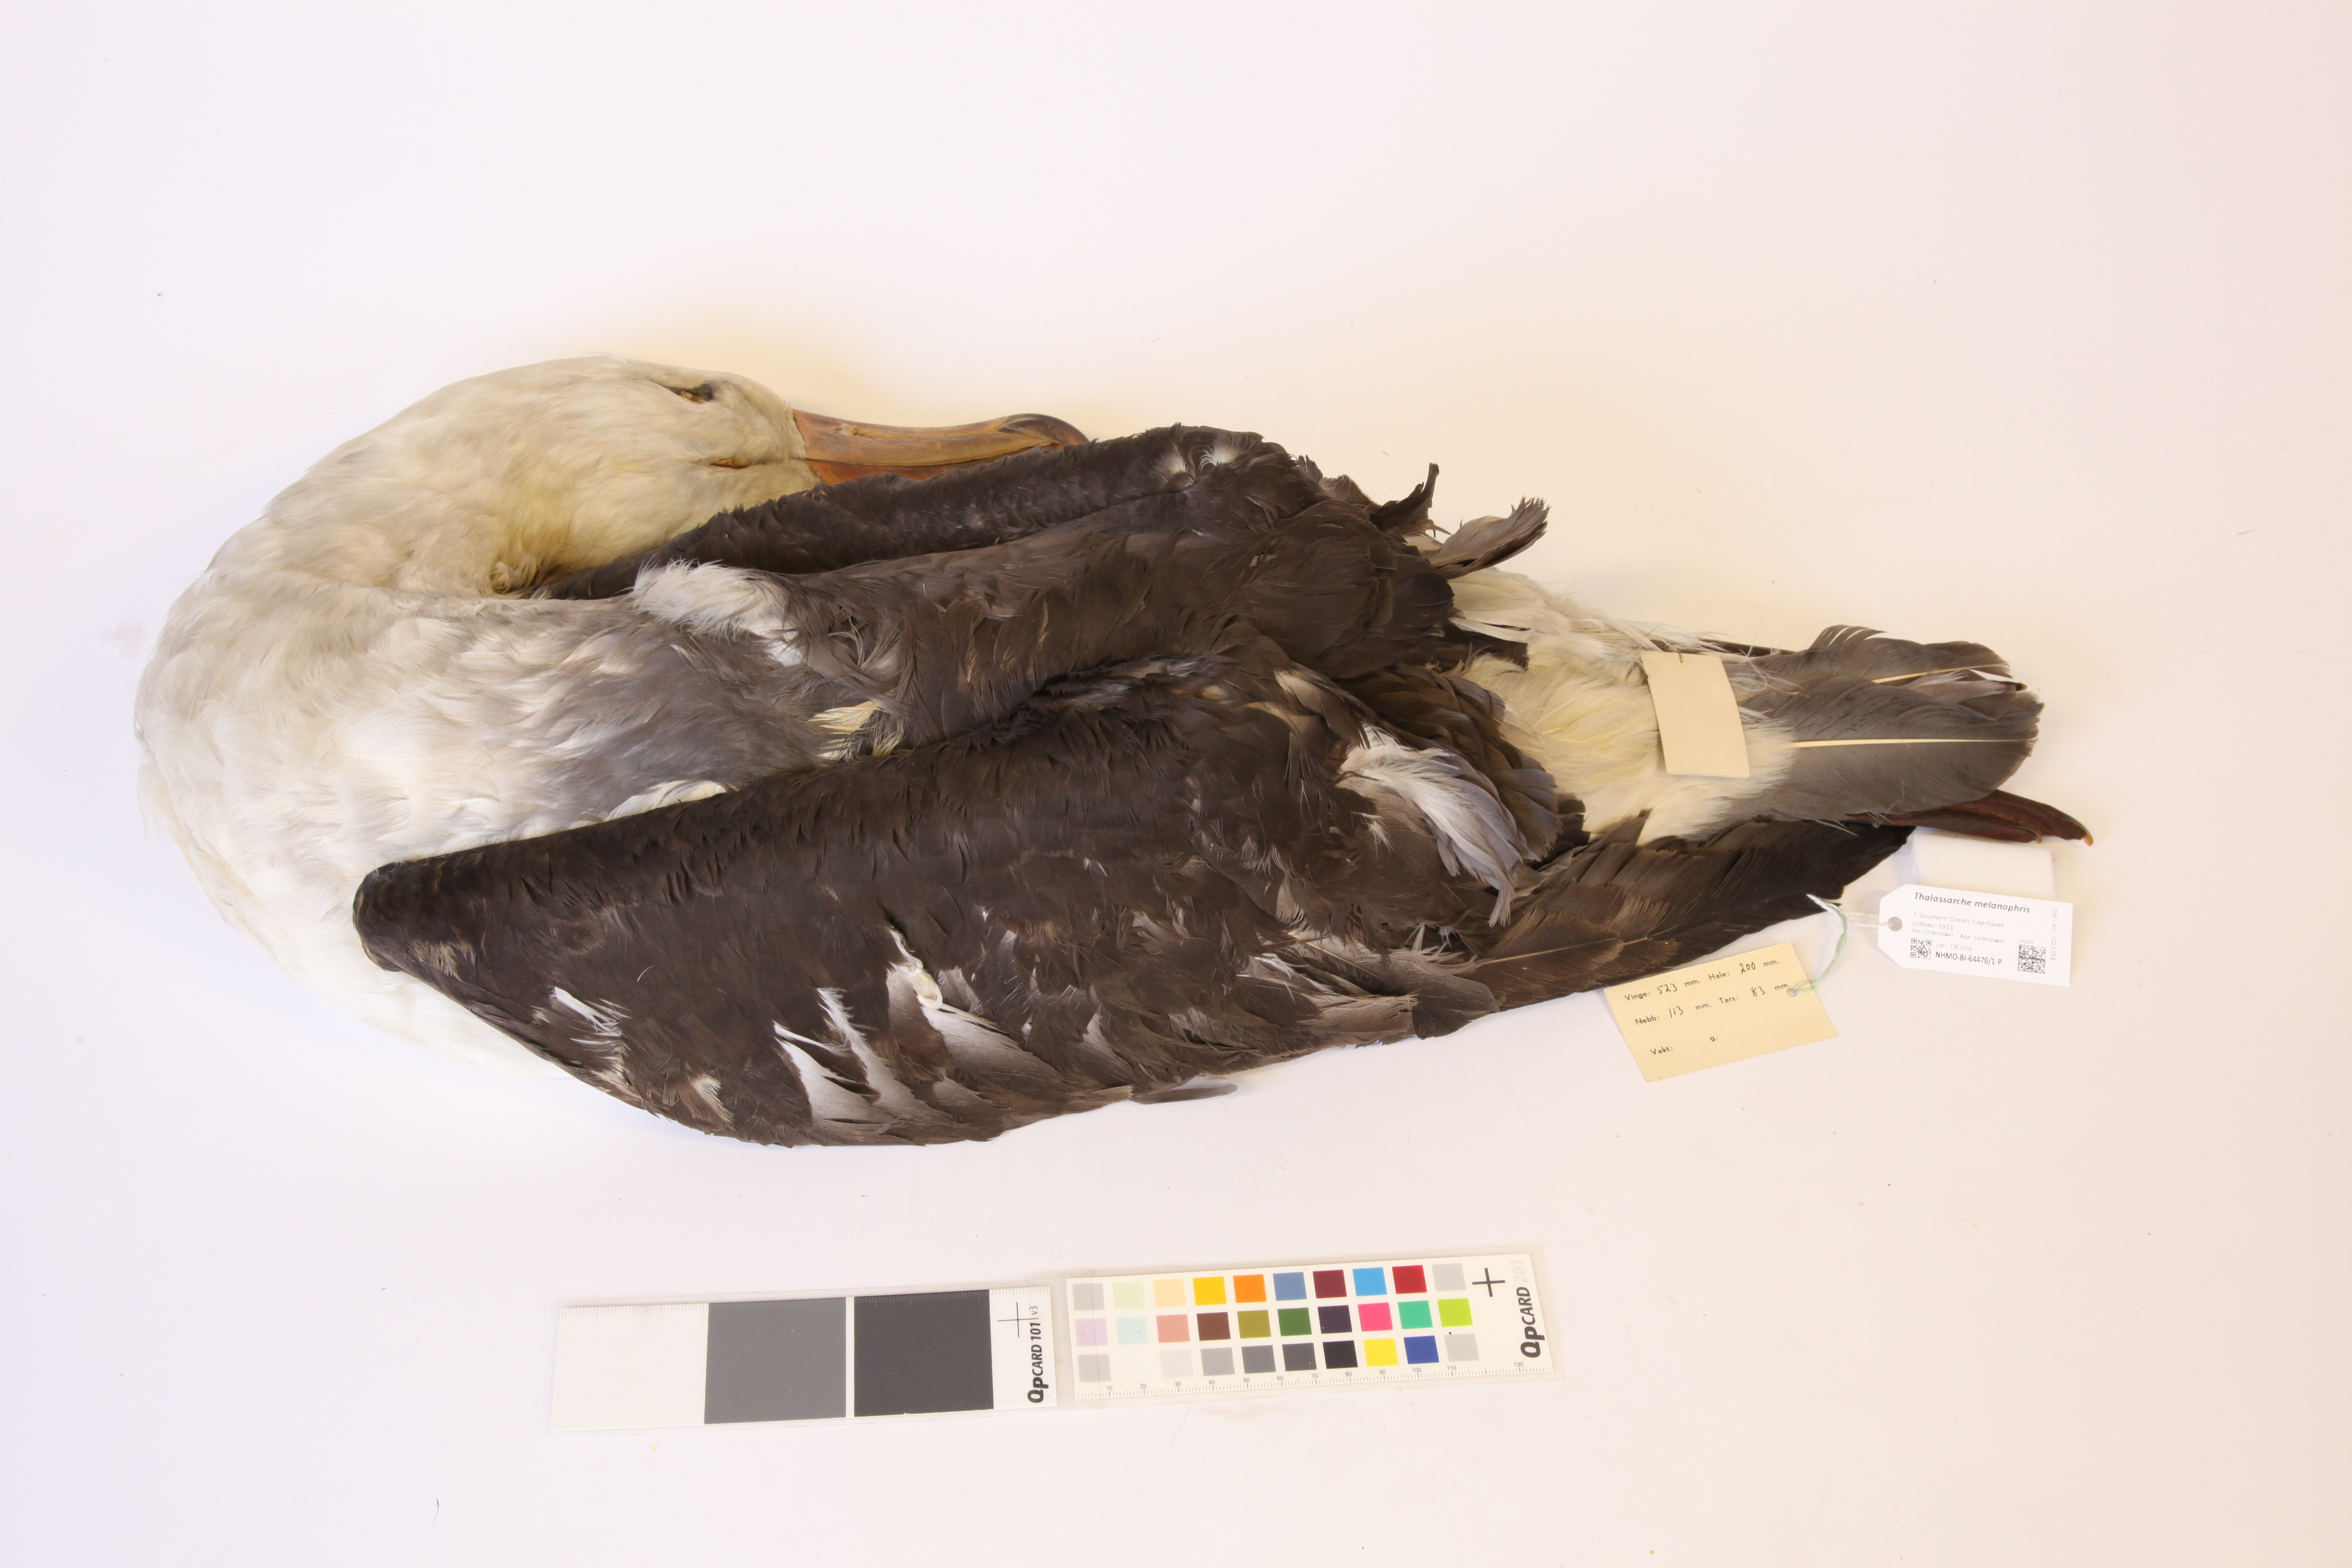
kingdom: Animalia
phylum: Chordata
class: Aves
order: Procellariiformes
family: Diomedeidae
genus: Thalassarche
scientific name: Thalassarche melanophris
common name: Black-browed albatross
